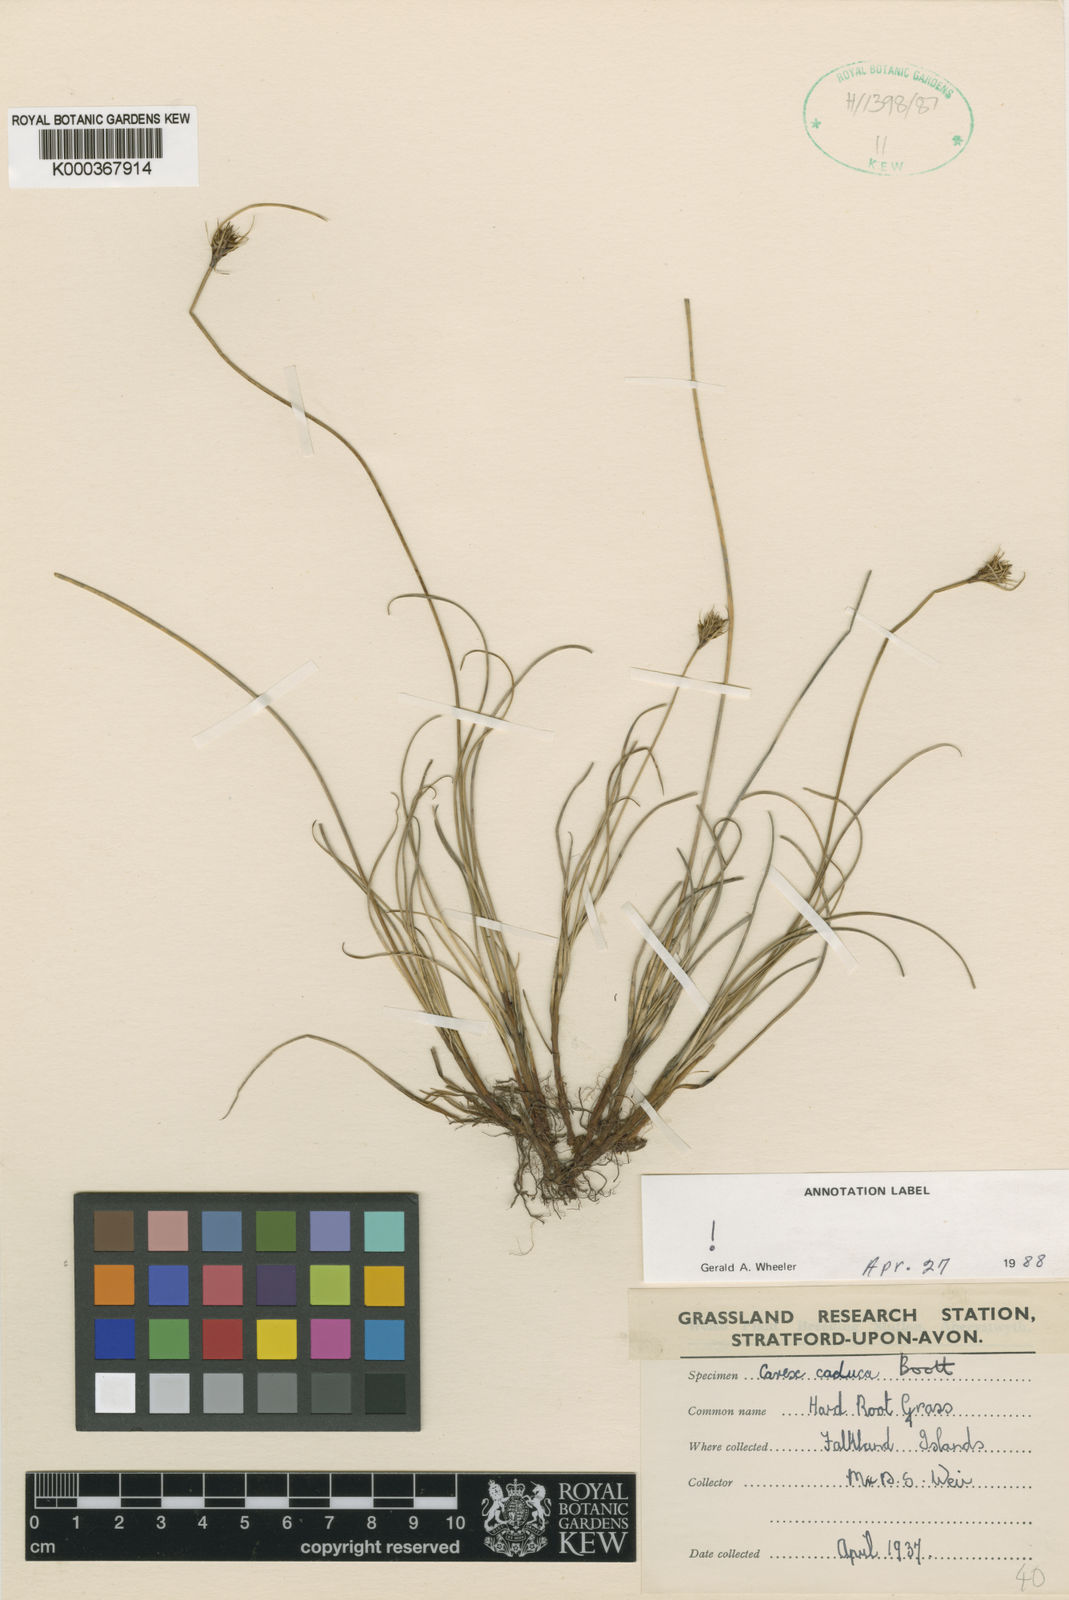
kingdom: Plantae
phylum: Tracheophyta
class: Liliopsida
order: Poales
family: Cyperaceae
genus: Carex
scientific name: Carex caduca
